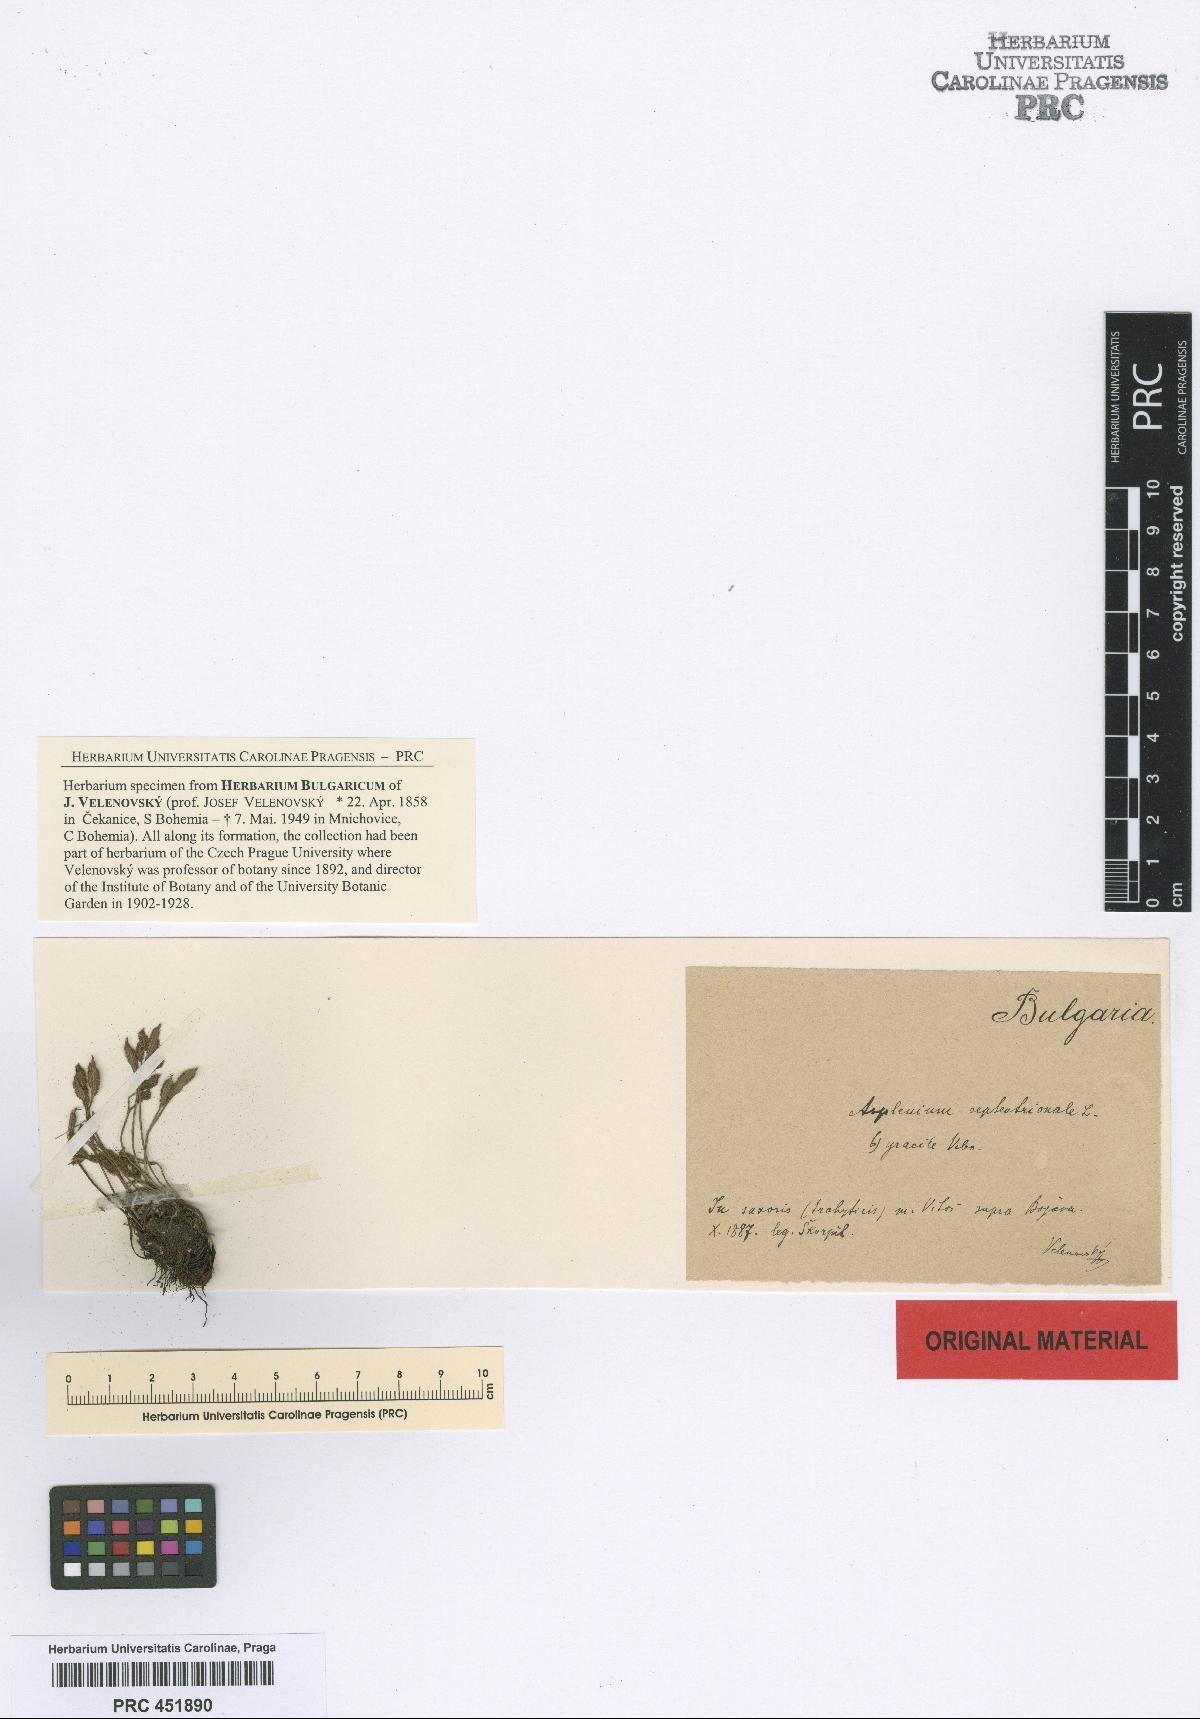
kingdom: Plantae
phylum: Tracheophyta
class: Polypodiopsida
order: Polypodiales
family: Aspleniaceae
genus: Asplenium
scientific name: Asplenium septentrionale
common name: Forked spleenwort
